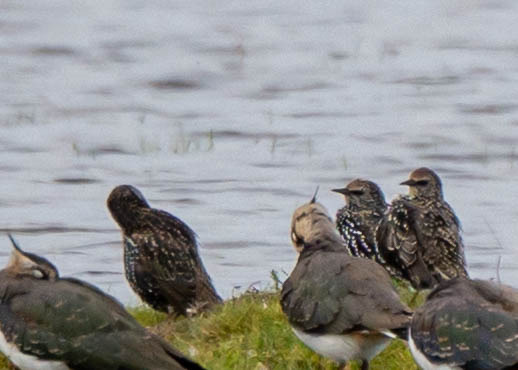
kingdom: Animalia
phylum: Chordata
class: Aves
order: Passeriformes
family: Sturnidae
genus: Sturnus
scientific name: Sturnus vulgaris
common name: Stær
